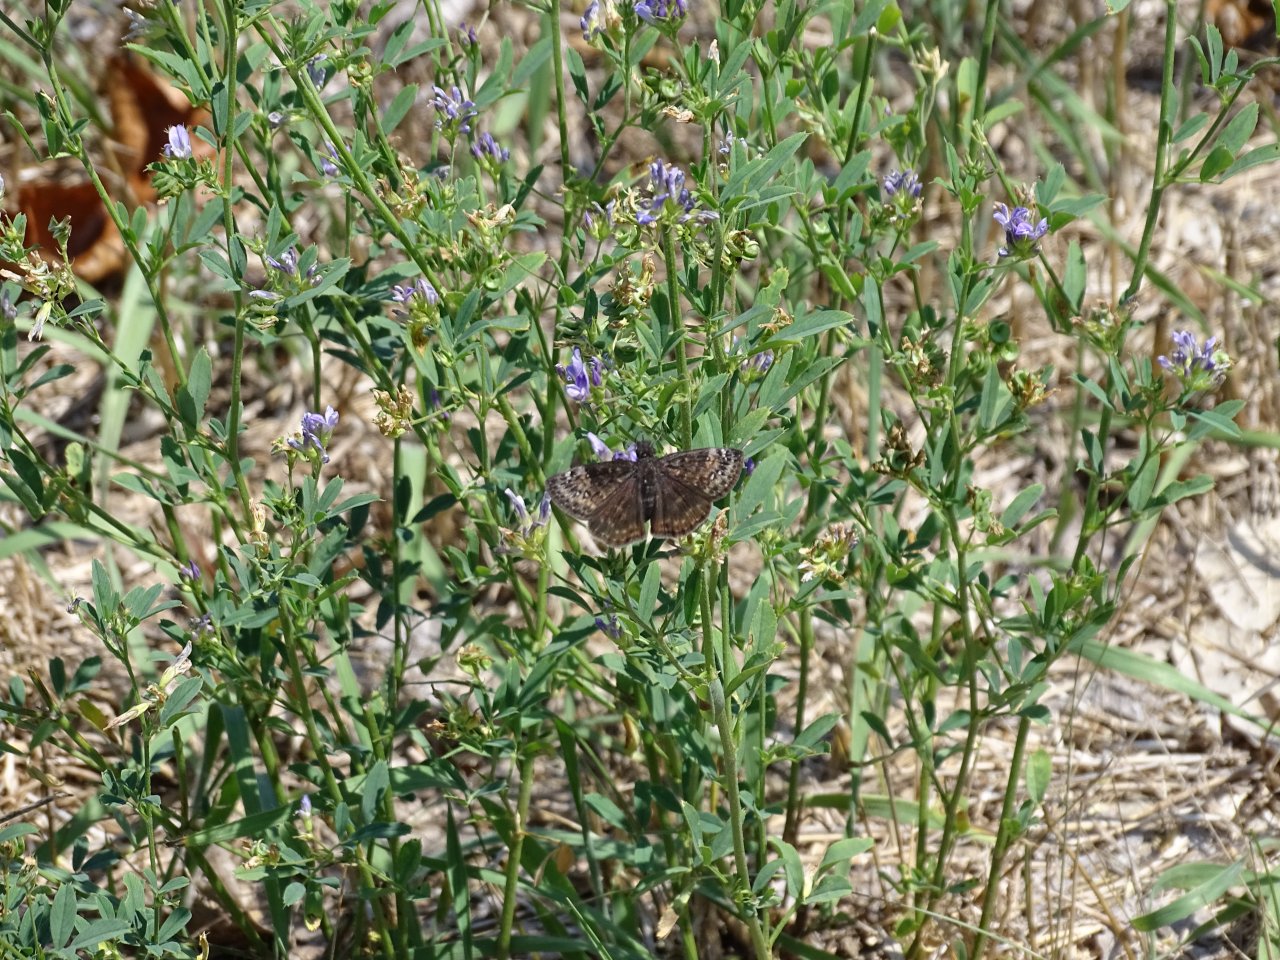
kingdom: Animalia
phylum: Arthropoda
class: Insecta
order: Lepidoptera
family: Hesperiidae
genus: Gesta
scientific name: Gesta
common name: Wild Indigo Duskywing
